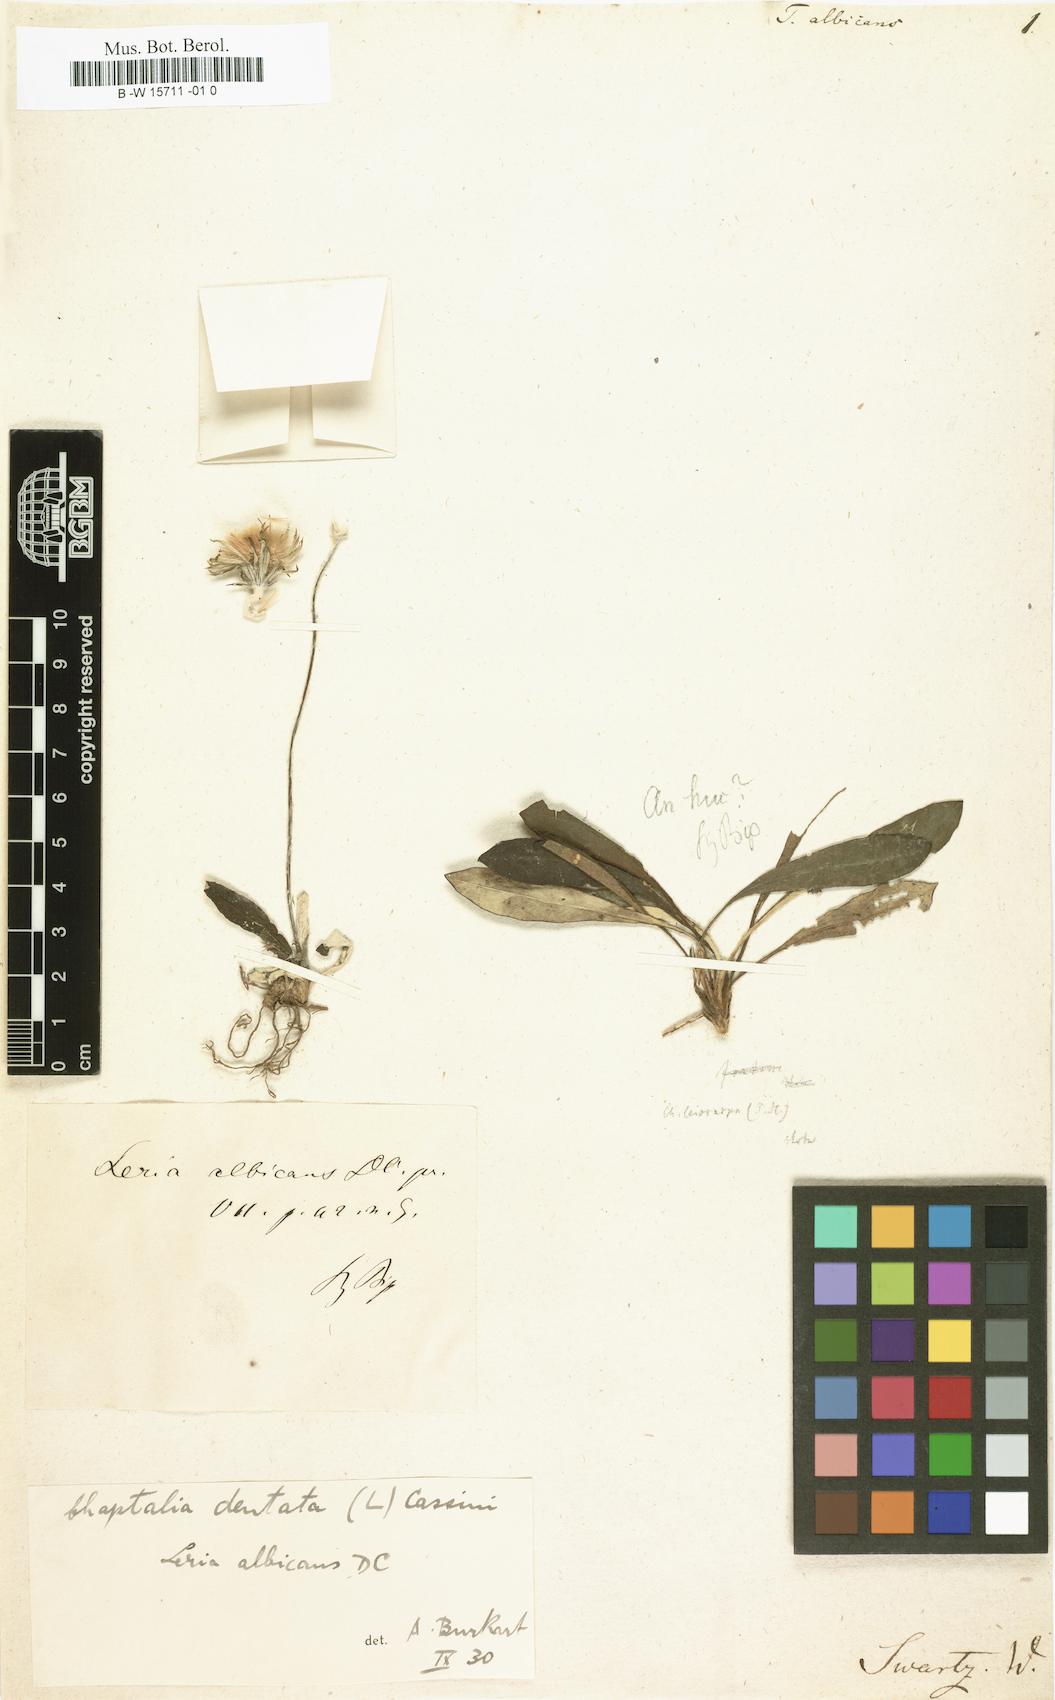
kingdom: Plantae
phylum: Tracheophyta
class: Magnoliopsida
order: Asterales
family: Asteraceae
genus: Chaptalia
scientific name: Chaptalia albicans
